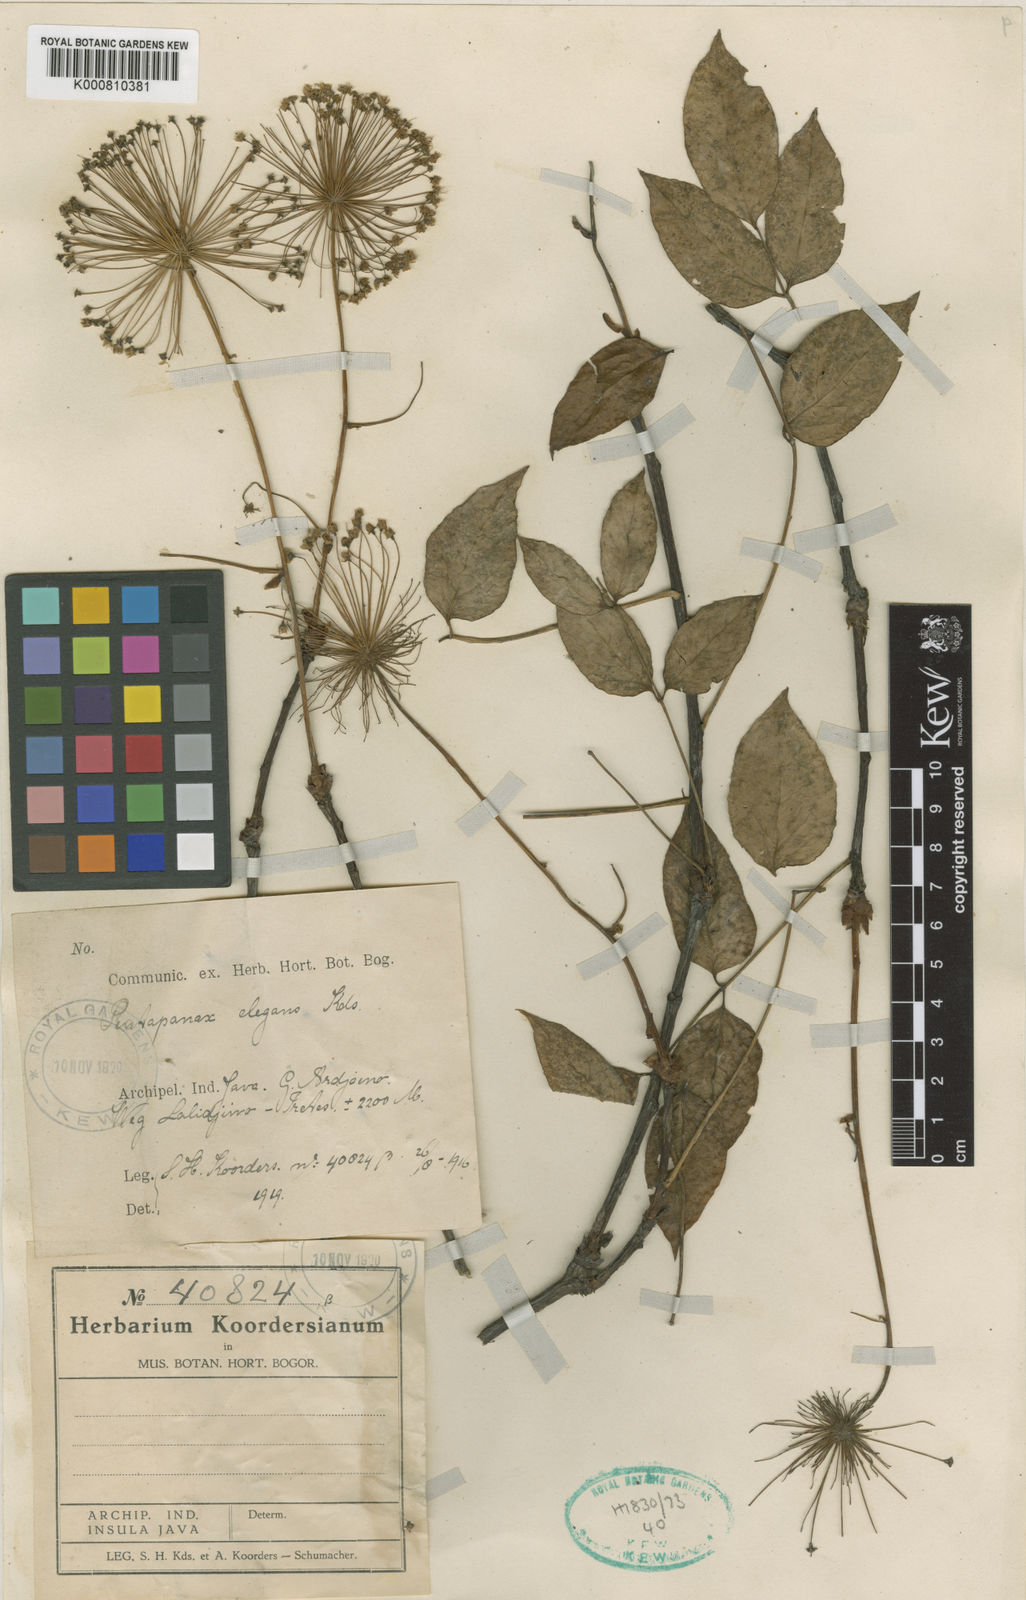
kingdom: Plantae
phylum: Tracheophyta
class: Magnoliopsida
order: Apiales
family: Araliaceae
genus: Aralia
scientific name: Aralia elegans
